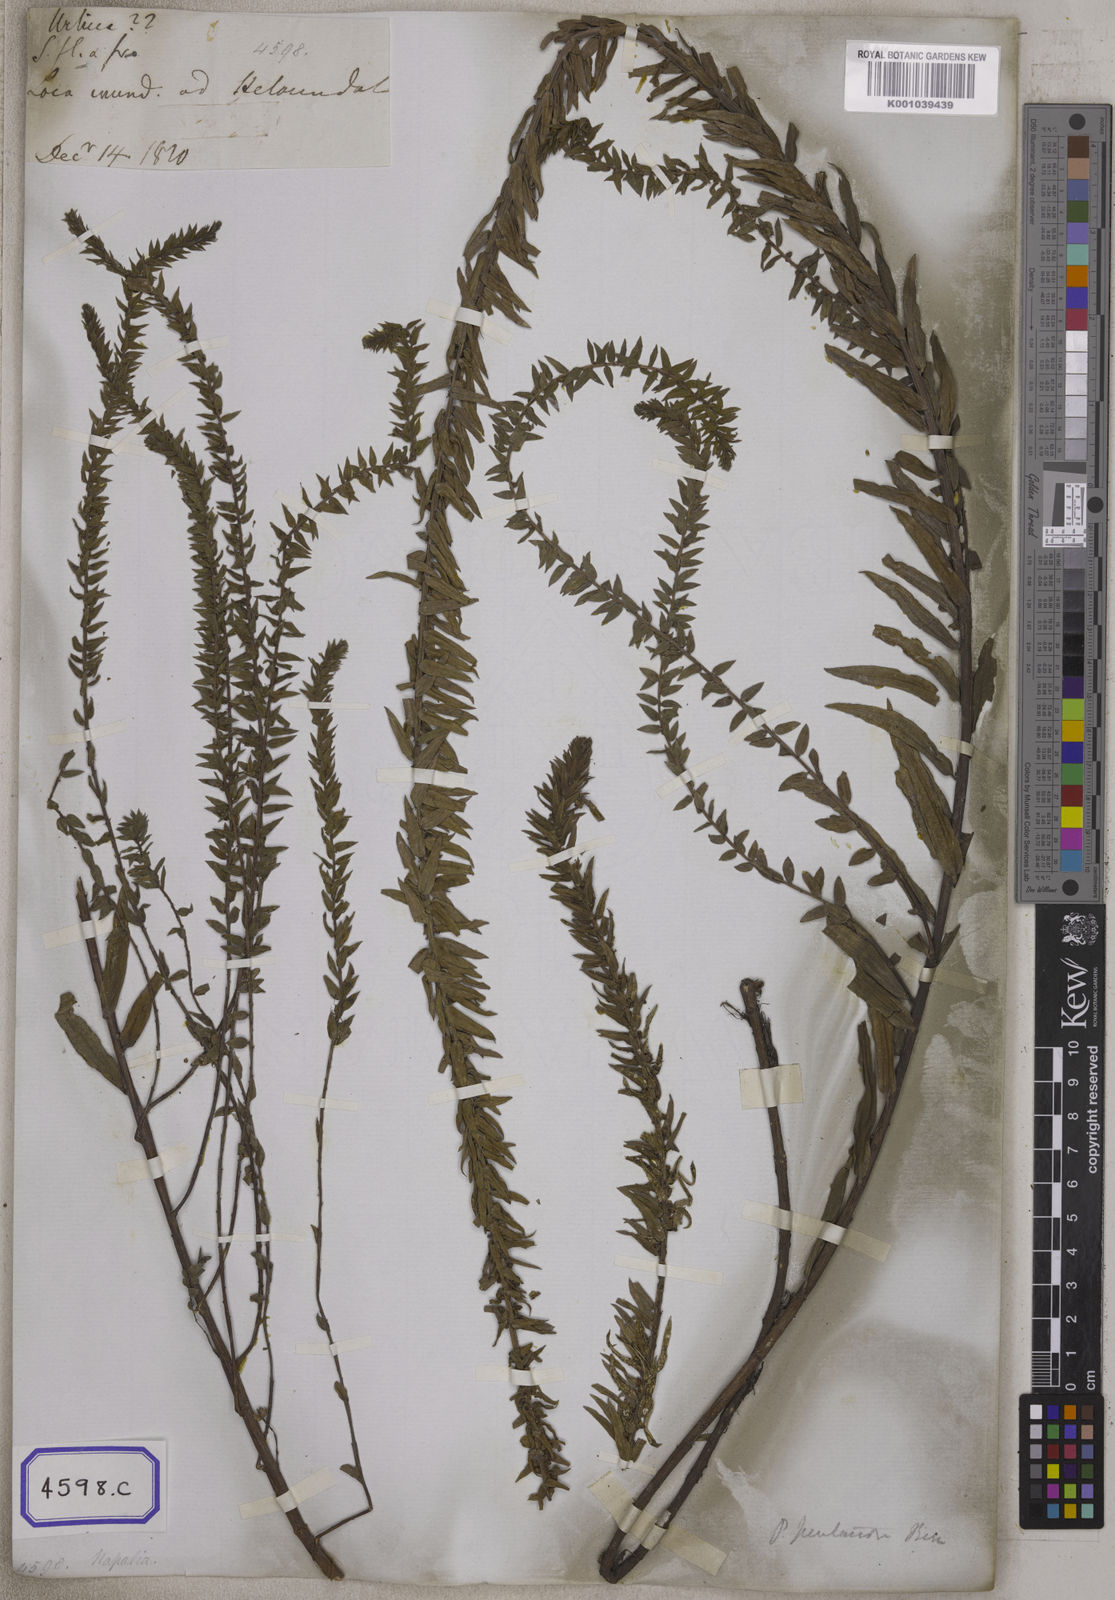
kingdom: Plantae
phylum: Tracheophyta
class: Magnoliopsida
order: Rosales
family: Urticaceae
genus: Gonostegia
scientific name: Gonostegia pentandra
